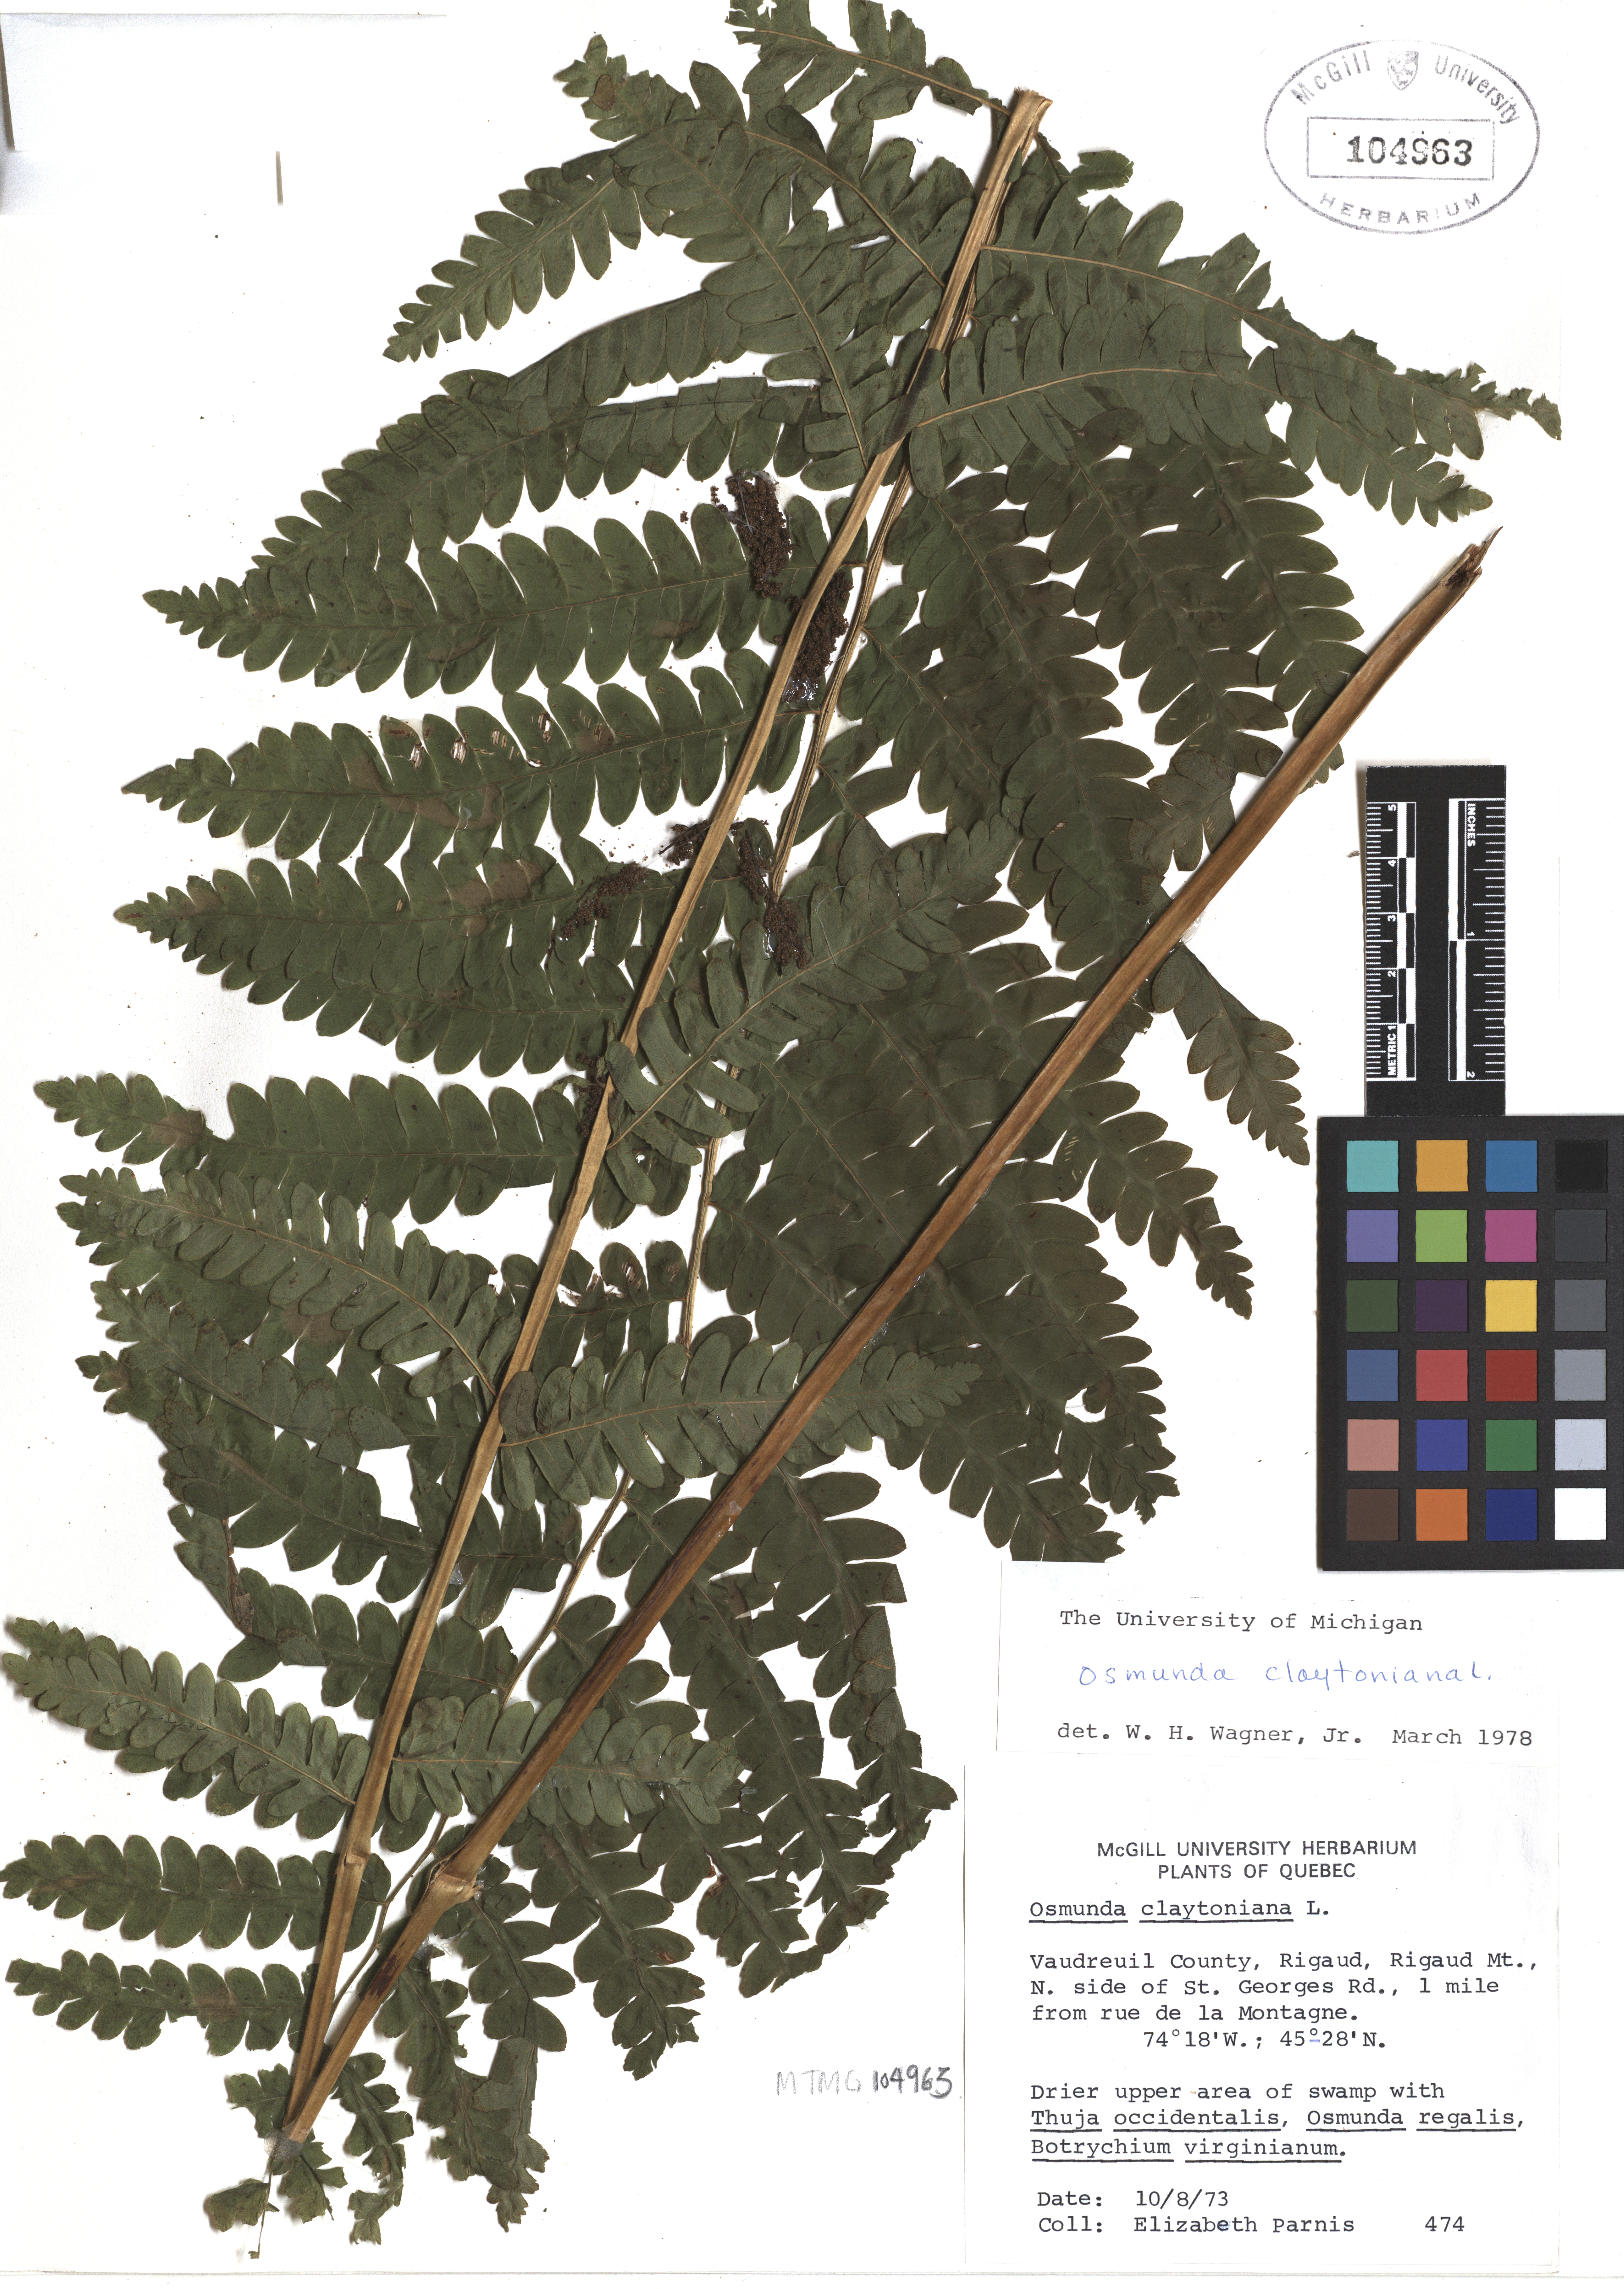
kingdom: Plantae
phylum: Tracheophyta
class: Polypodiopsida
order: Osmundales
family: Osmundaceae
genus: Claytosmunda
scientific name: Claytosmunda claytoniana
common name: Clayton's fern
